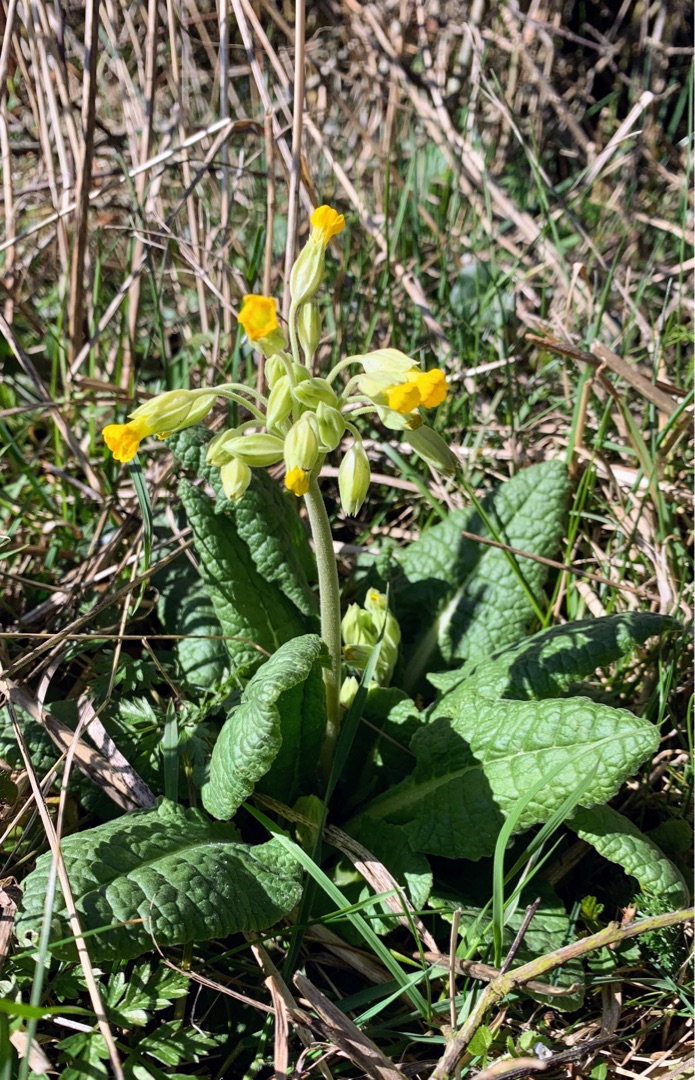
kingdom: Plantae
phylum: Tracheophyta
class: Magnoliopsida
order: Ericales
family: Primulaceae
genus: Primula
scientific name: Primula veris
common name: Hulkravet kodriver
